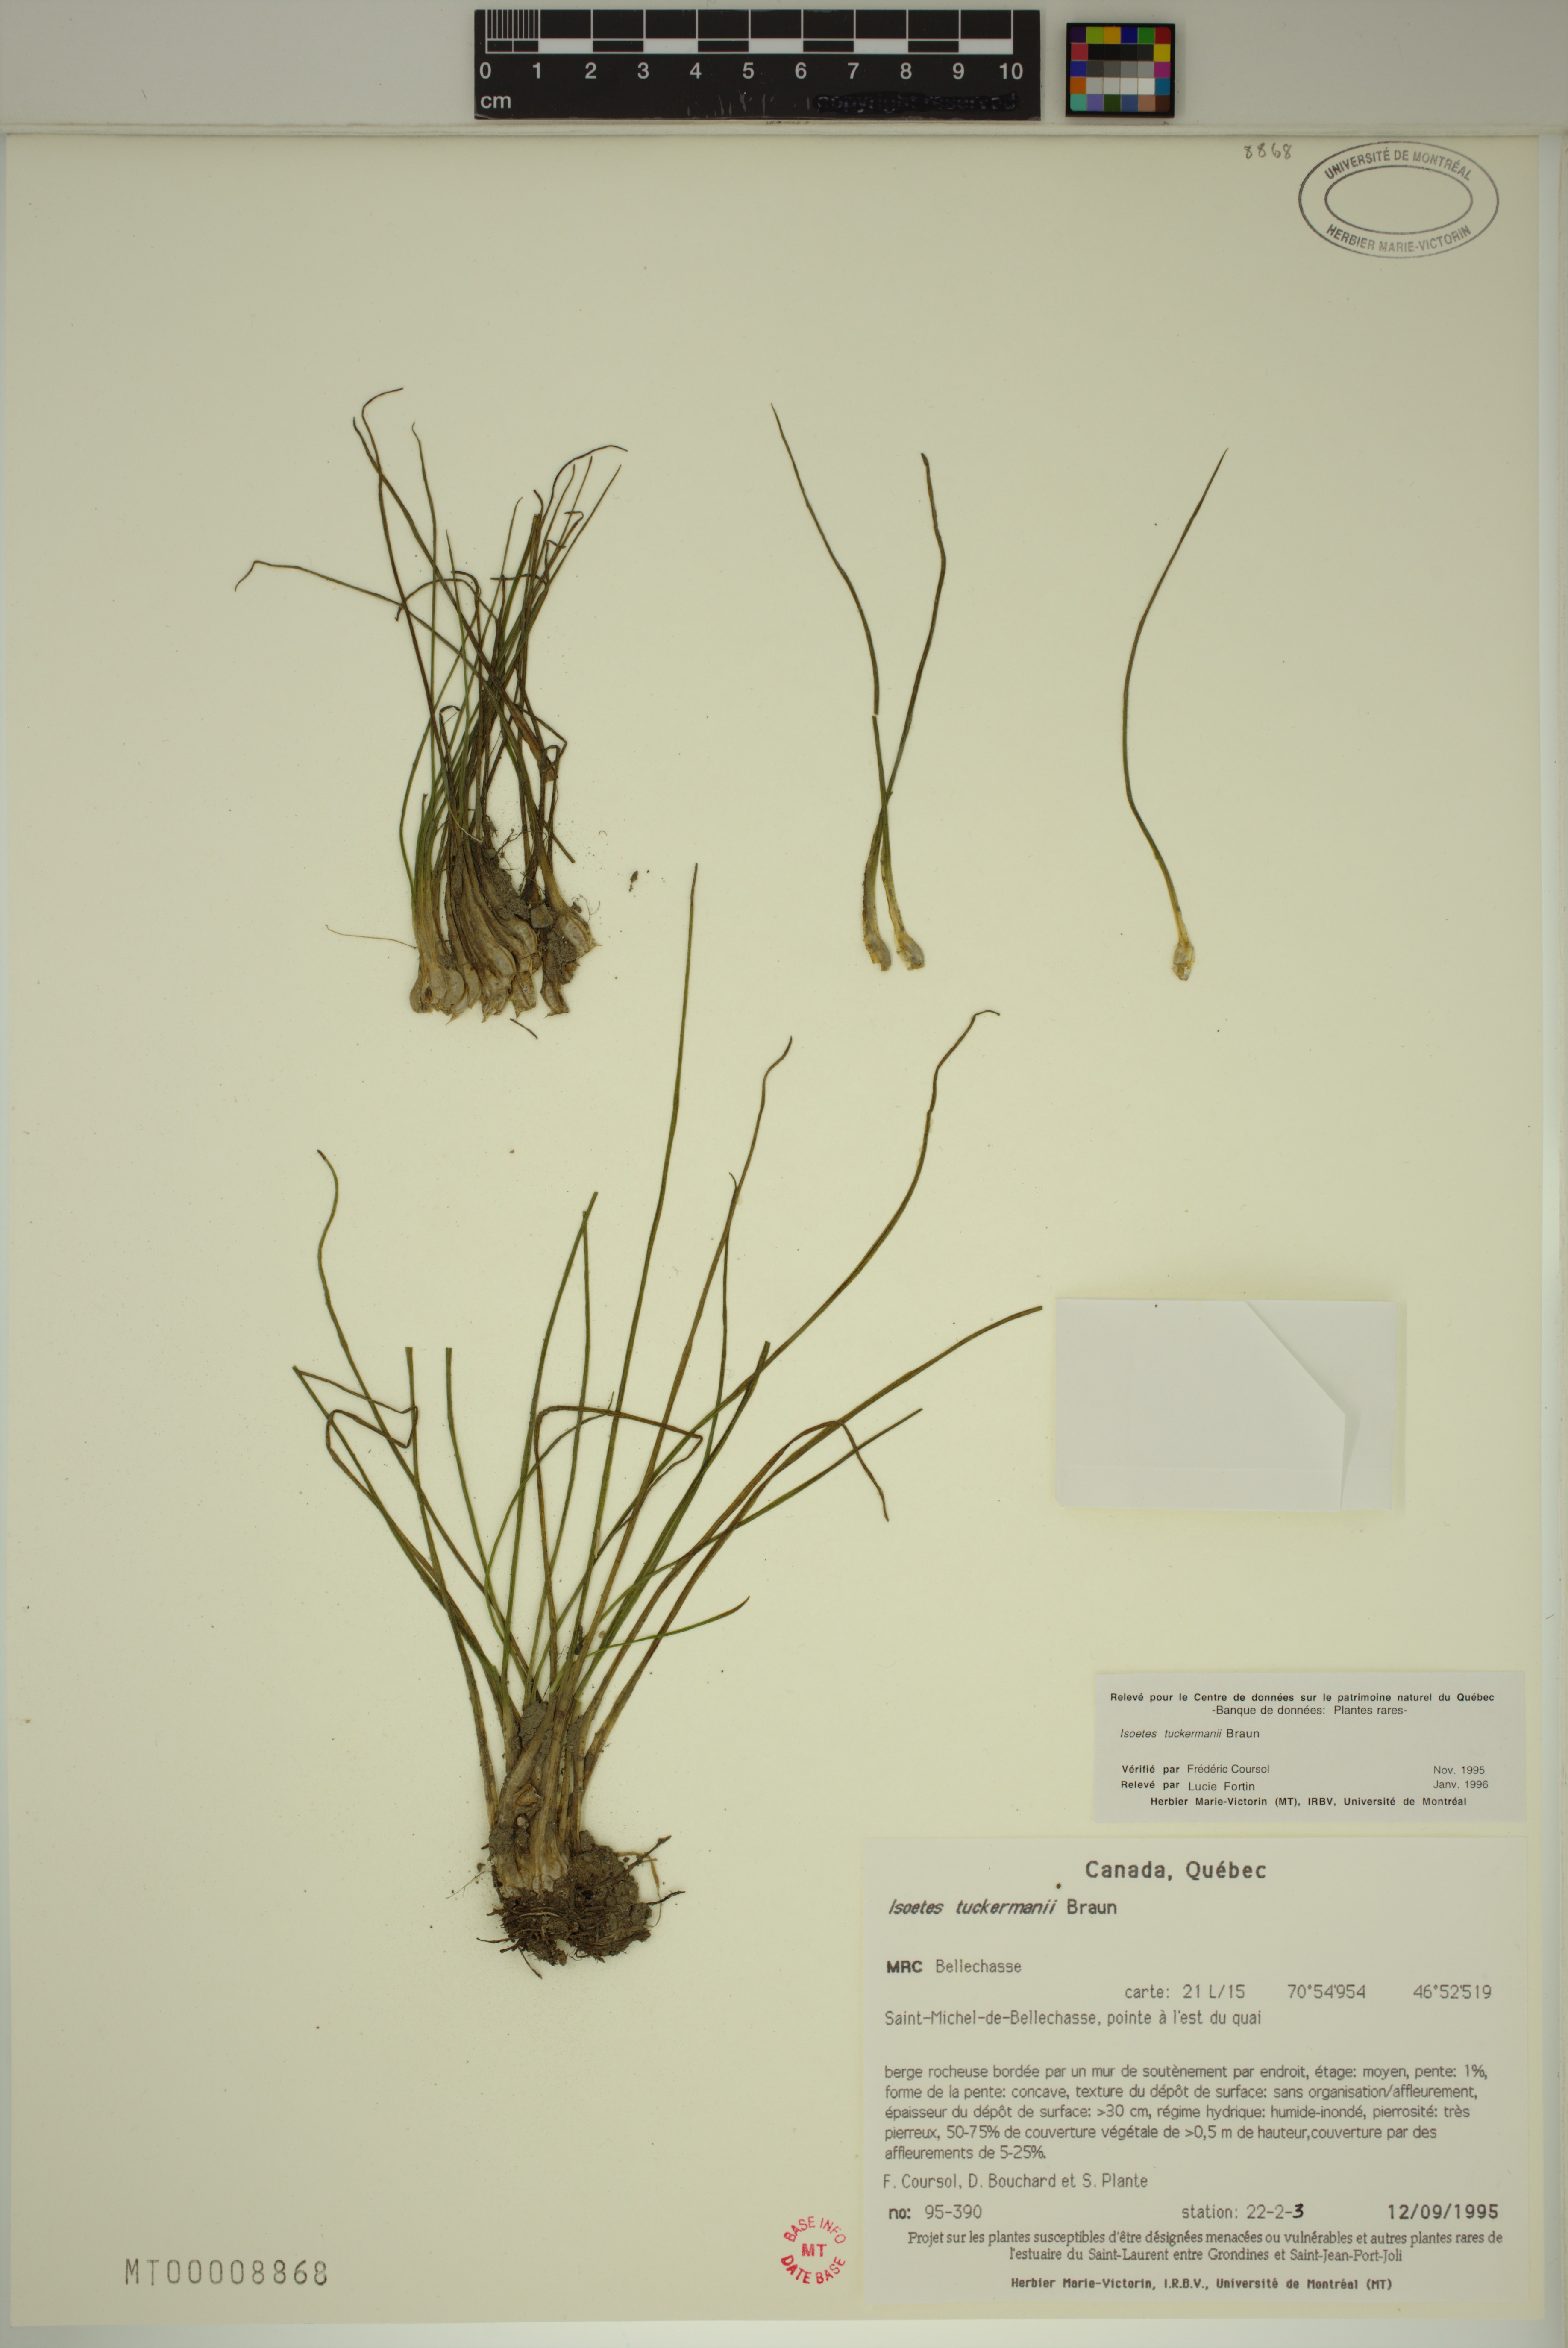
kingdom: Plantae
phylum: Tracheophyta
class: Lycopodiopsida
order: Isoetales
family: Isoetaceae
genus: Isoetes
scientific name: Isoetes laurentiana
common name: St. lawrence quillwort
